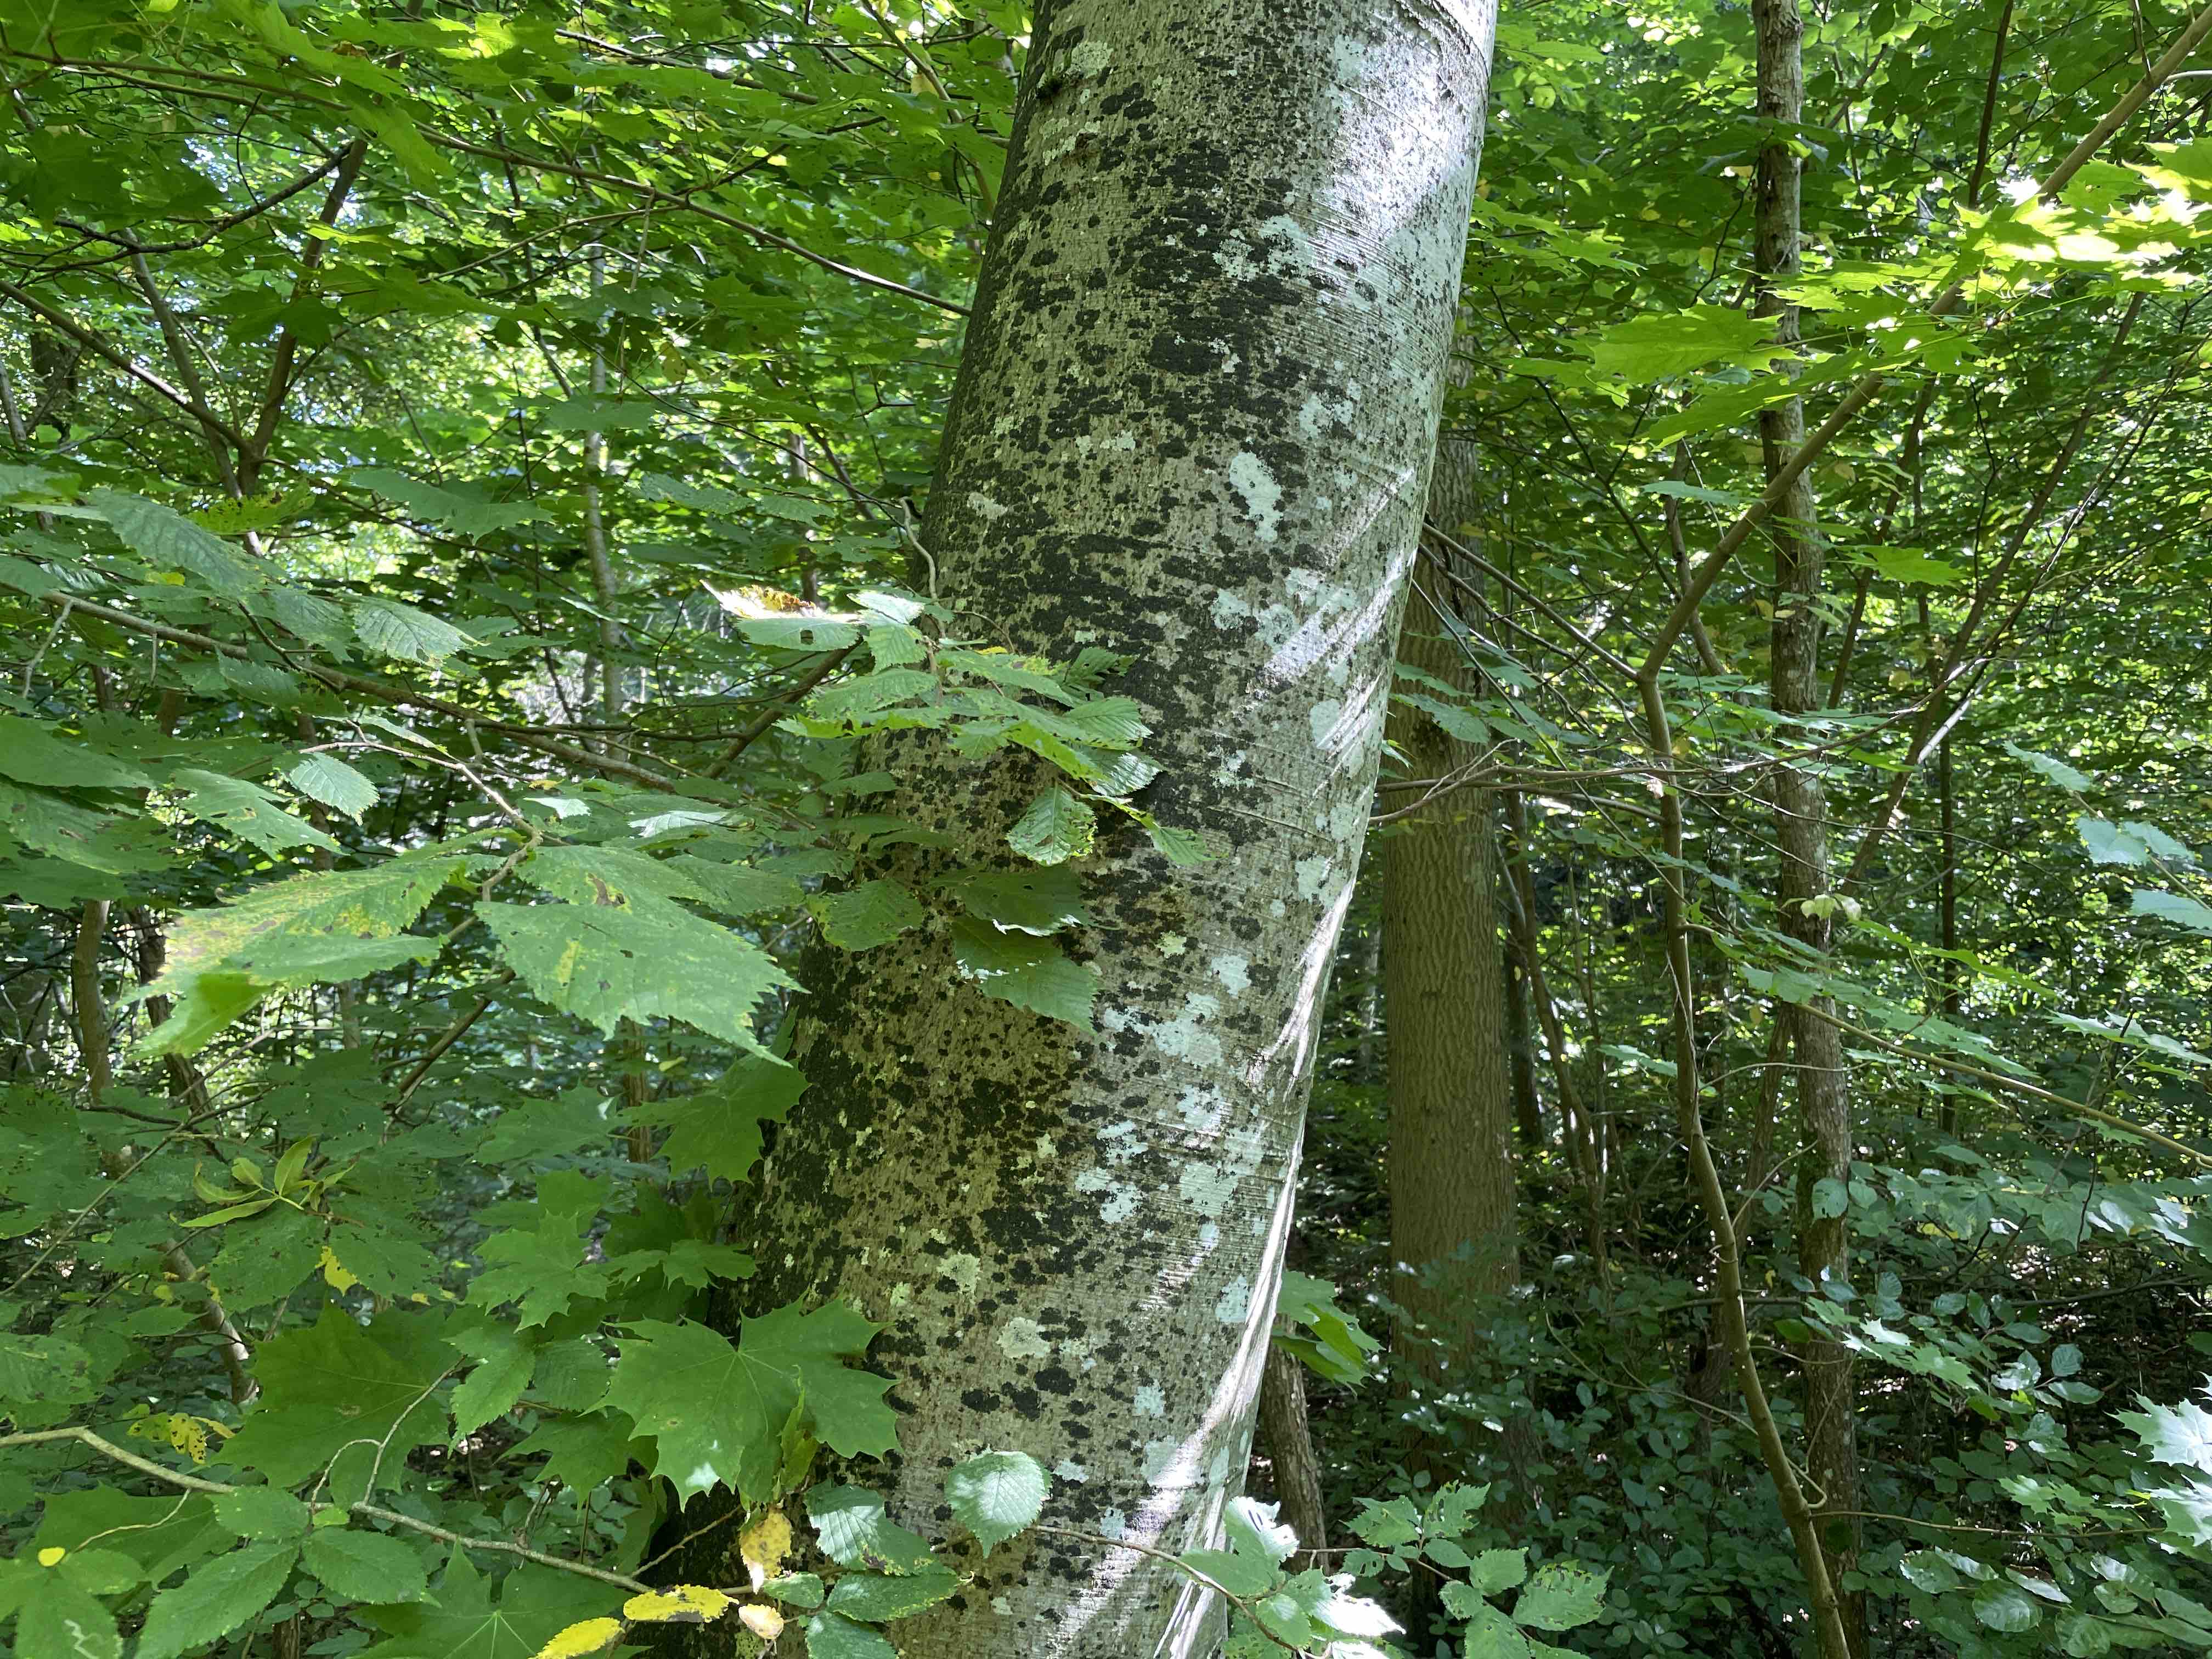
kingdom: Fungi
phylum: Ascomycota
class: Leotiomycetes
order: Rhytismatales
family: Ascodichaenaceae
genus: Ascodichaena
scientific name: Ascodichaena rugosa
